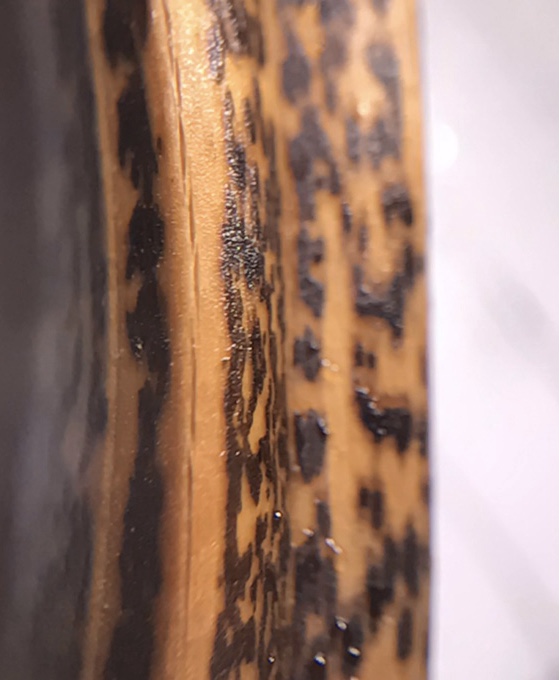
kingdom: Fungi
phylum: Ascomycota
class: Dothideomycetes
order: Pleosporales
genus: Rhopographus
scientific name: Rhopographus filicinus
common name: Bracken map
